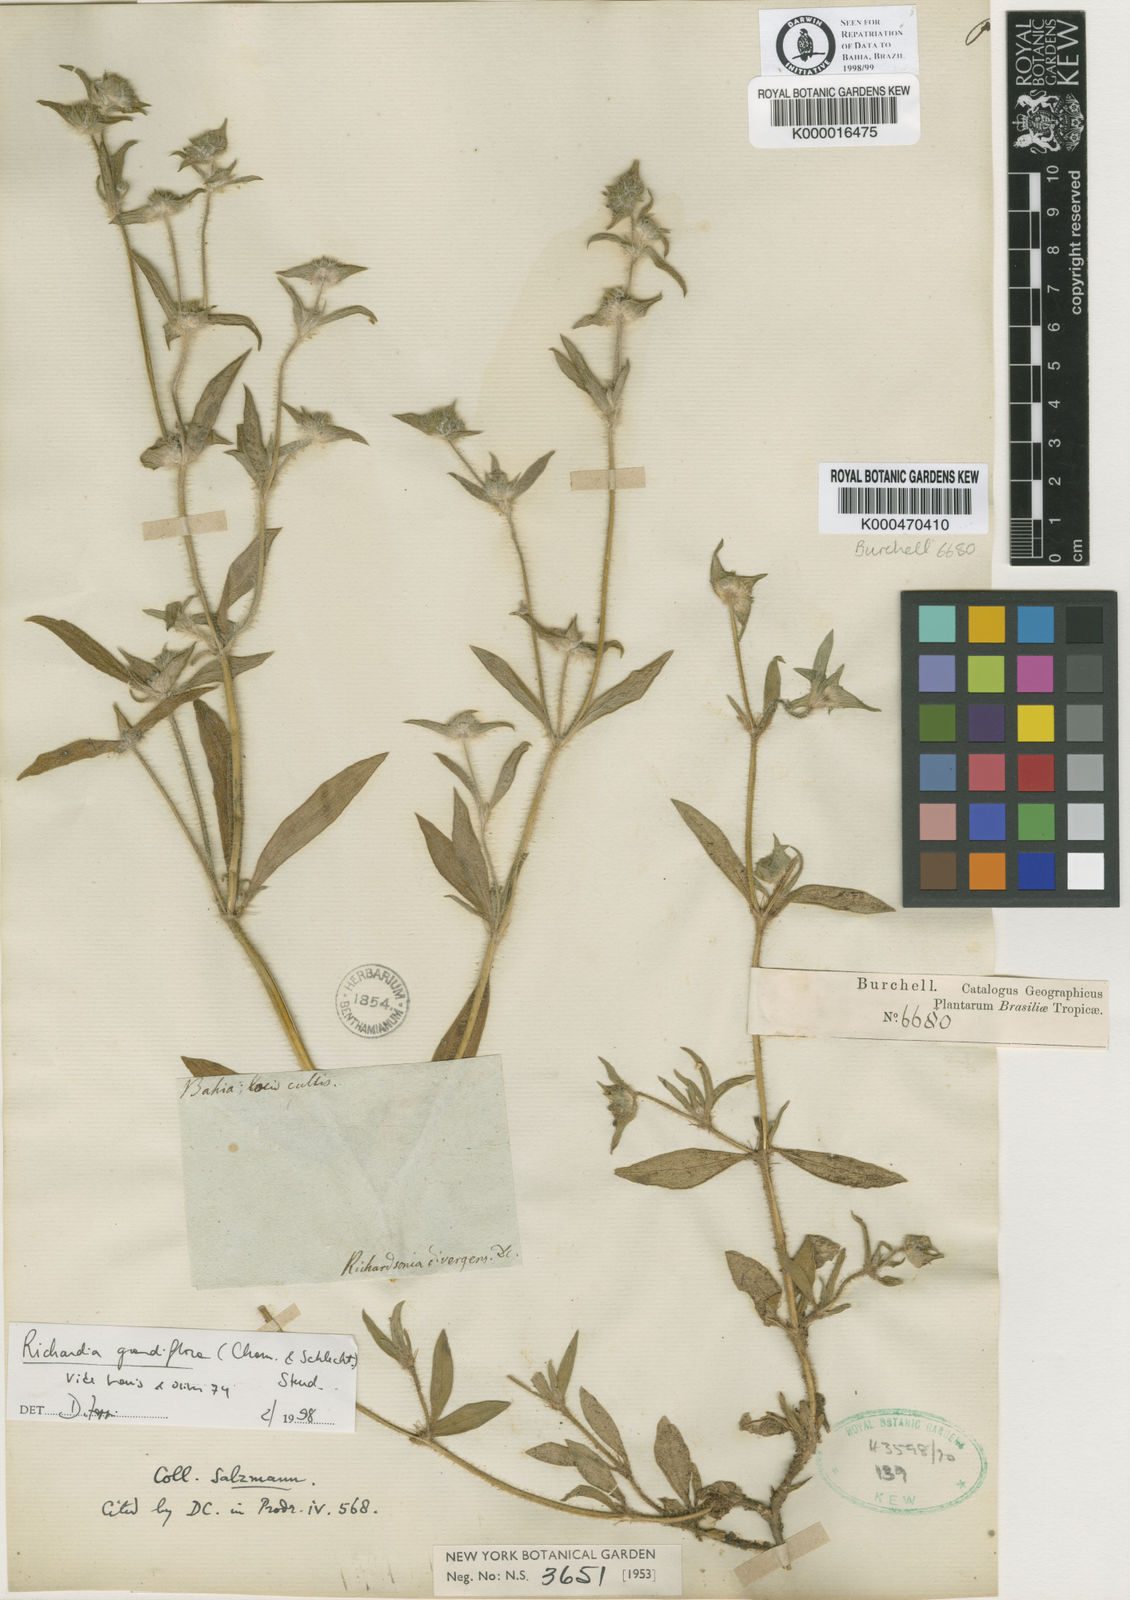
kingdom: Plantae
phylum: Tracheophyta
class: Magnoliopsida
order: Gentianales
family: Rubiaceae
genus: Richardia
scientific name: Richardia
